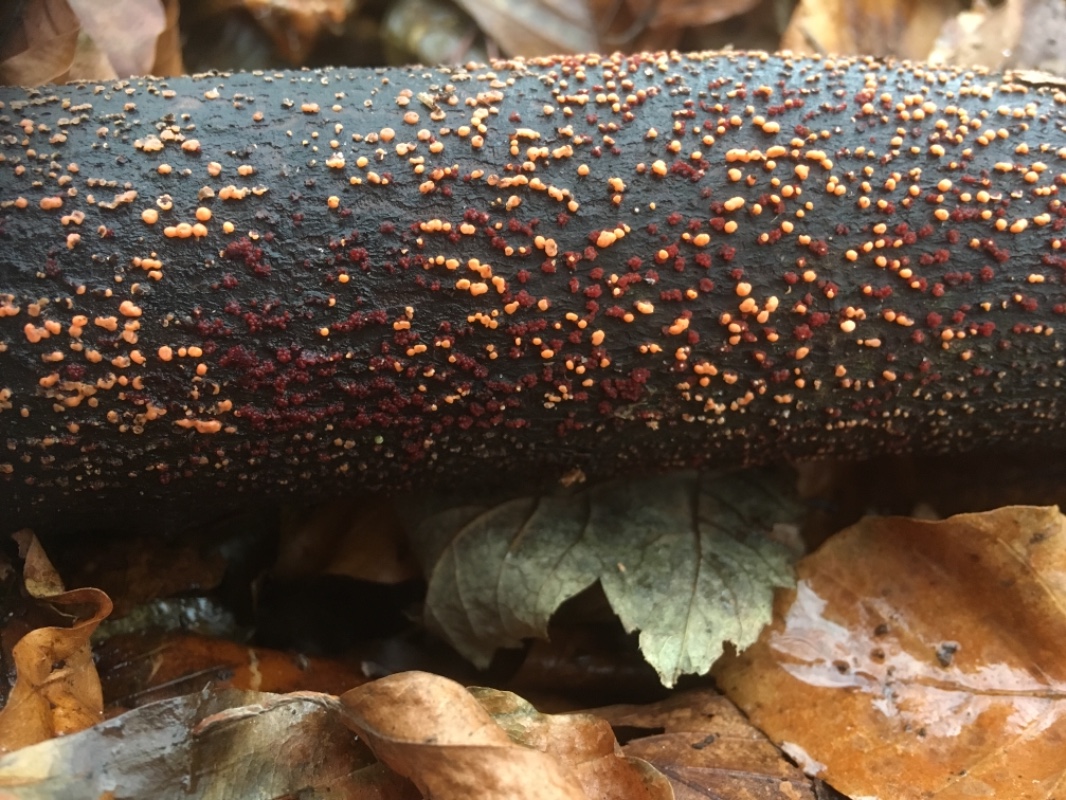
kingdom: Fungi
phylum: Ascomycota
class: Sordariomycetes
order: Hypocreales
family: Nectriaceae
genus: Nectria
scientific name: Nectria cinnabarina
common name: almindelig cinnobersvamp
